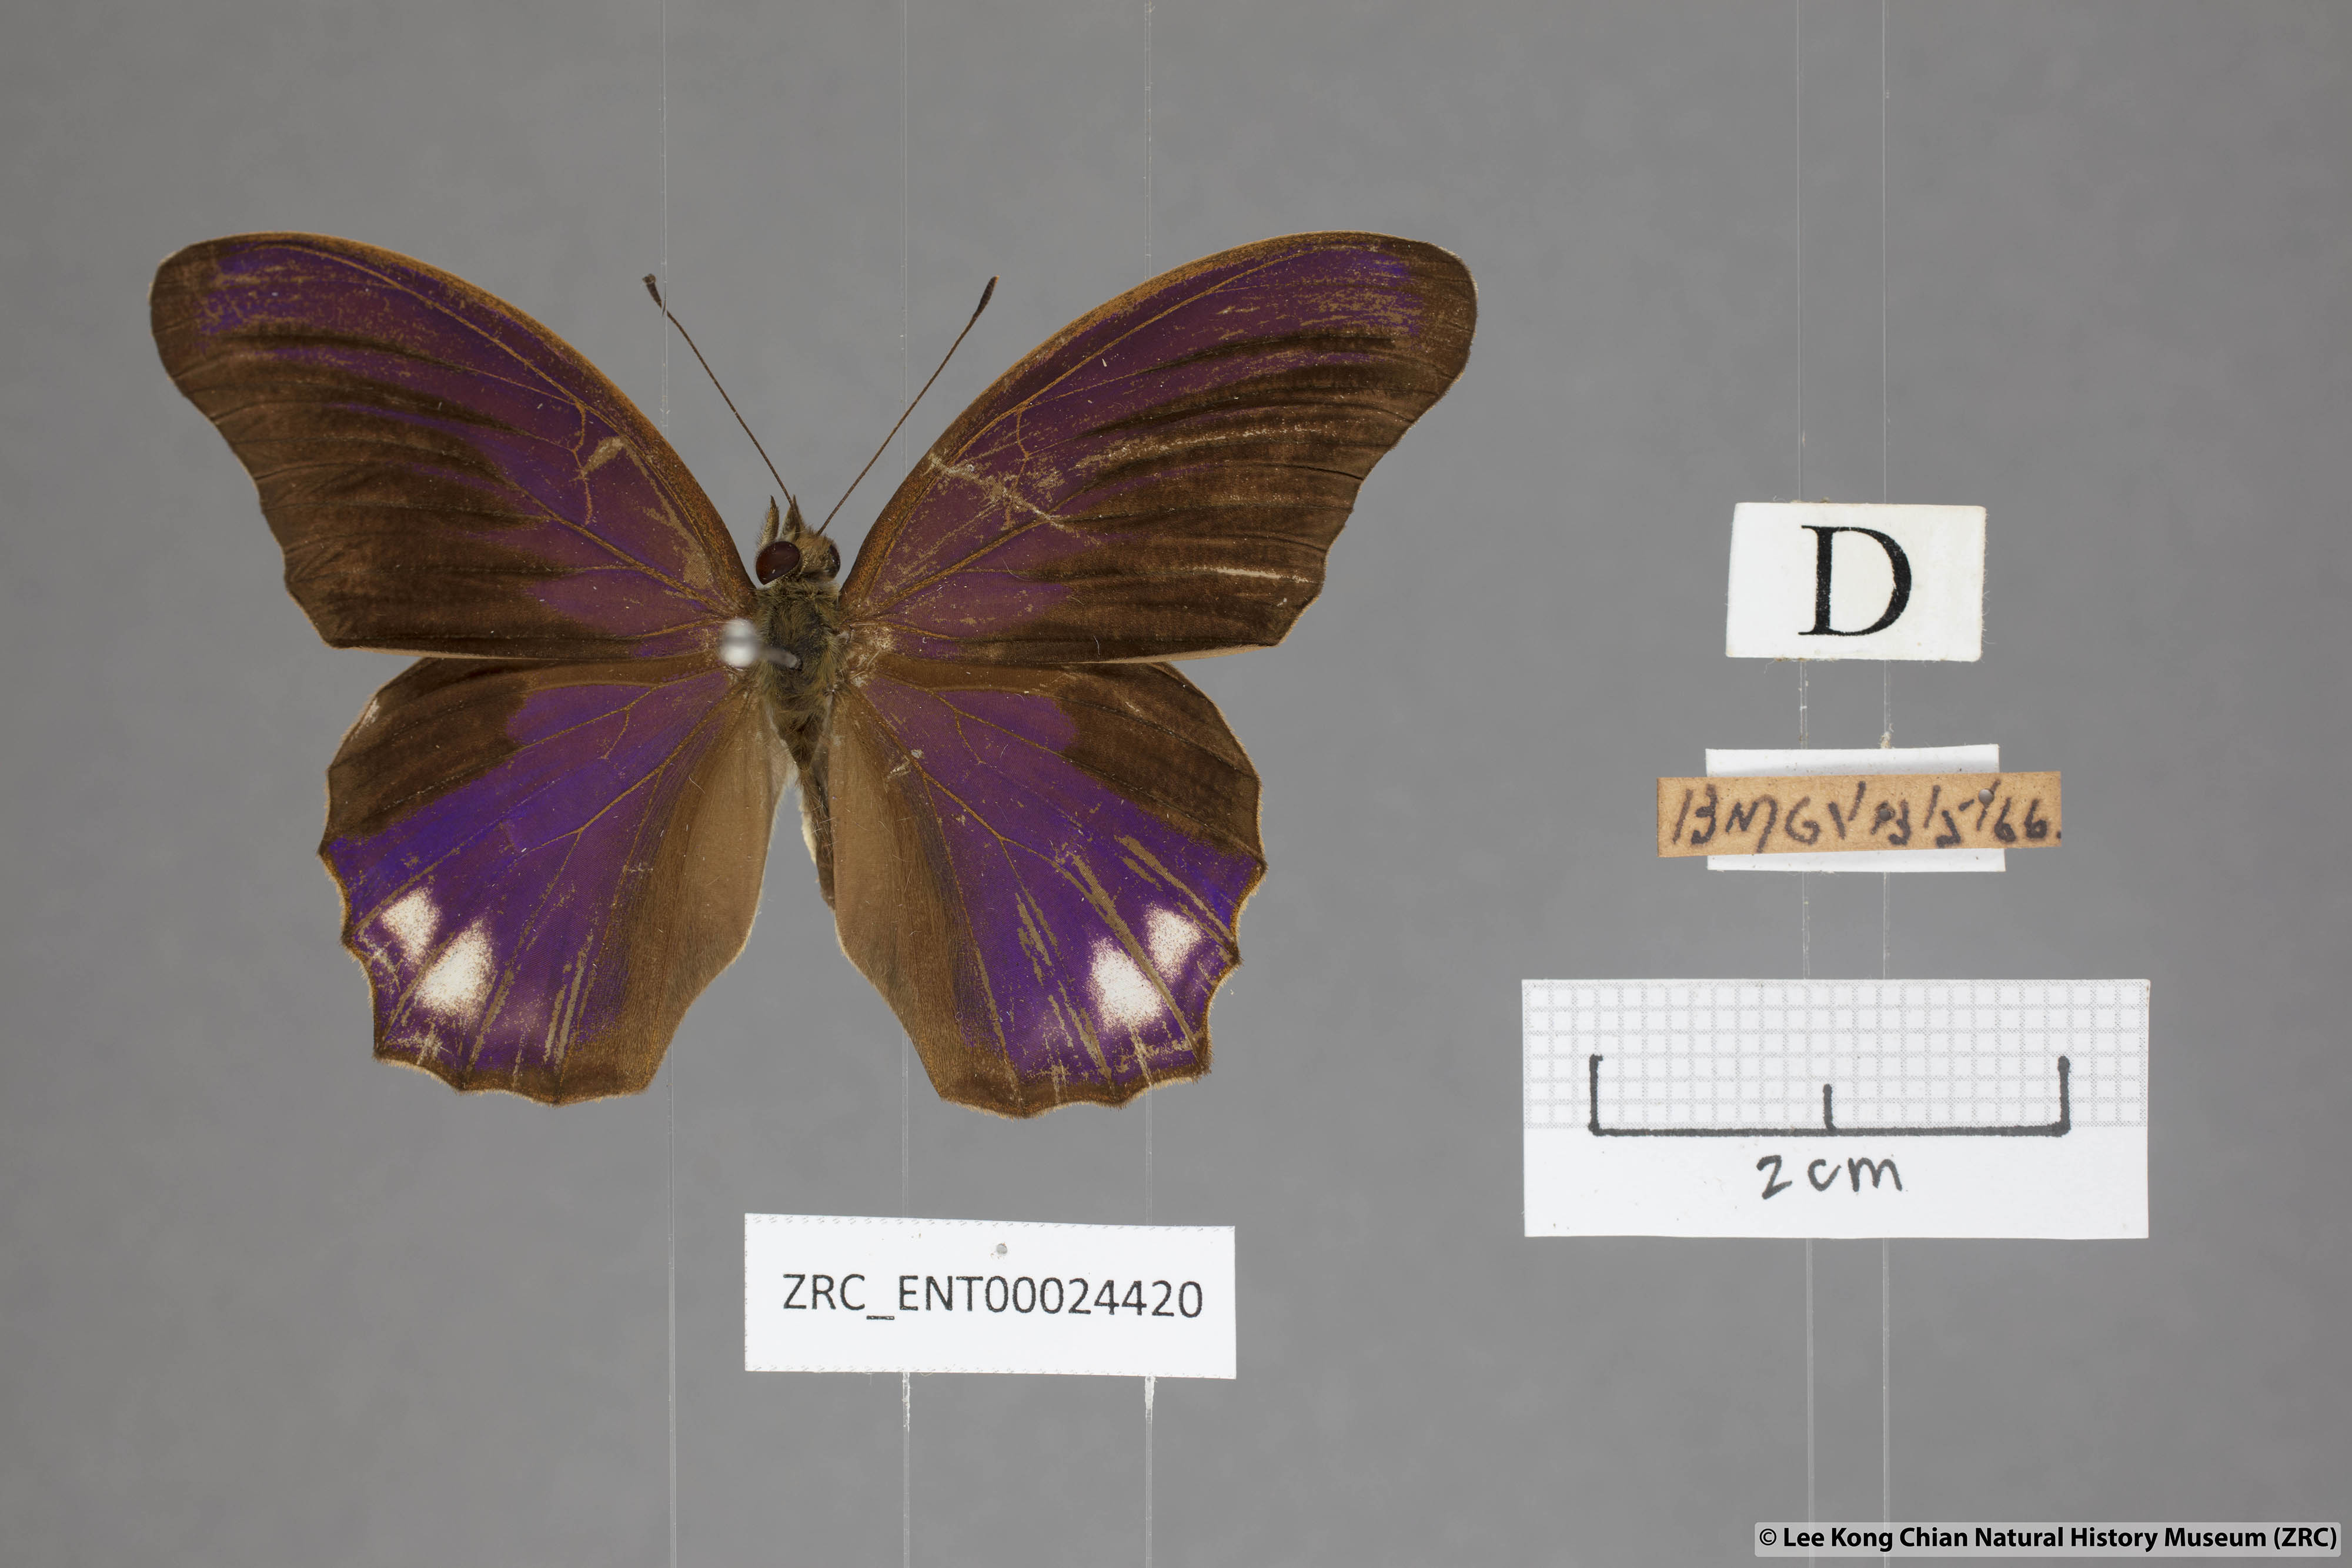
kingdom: Animalia
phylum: Arthropoda
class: Insecta
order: Lepidoptera
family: Nymphalidae
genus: Terinos
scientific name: Terinos atlita
